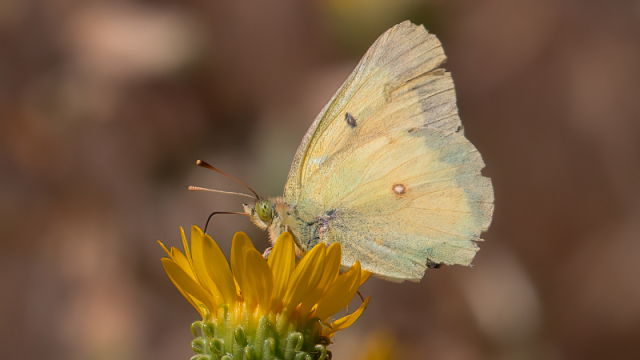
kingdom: Animalia
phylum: Arthropoda
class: Insecta
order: Lepidoptera
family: Pieridae
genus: Colias
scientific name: Colias eurytheme
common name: Orange Sulphur
